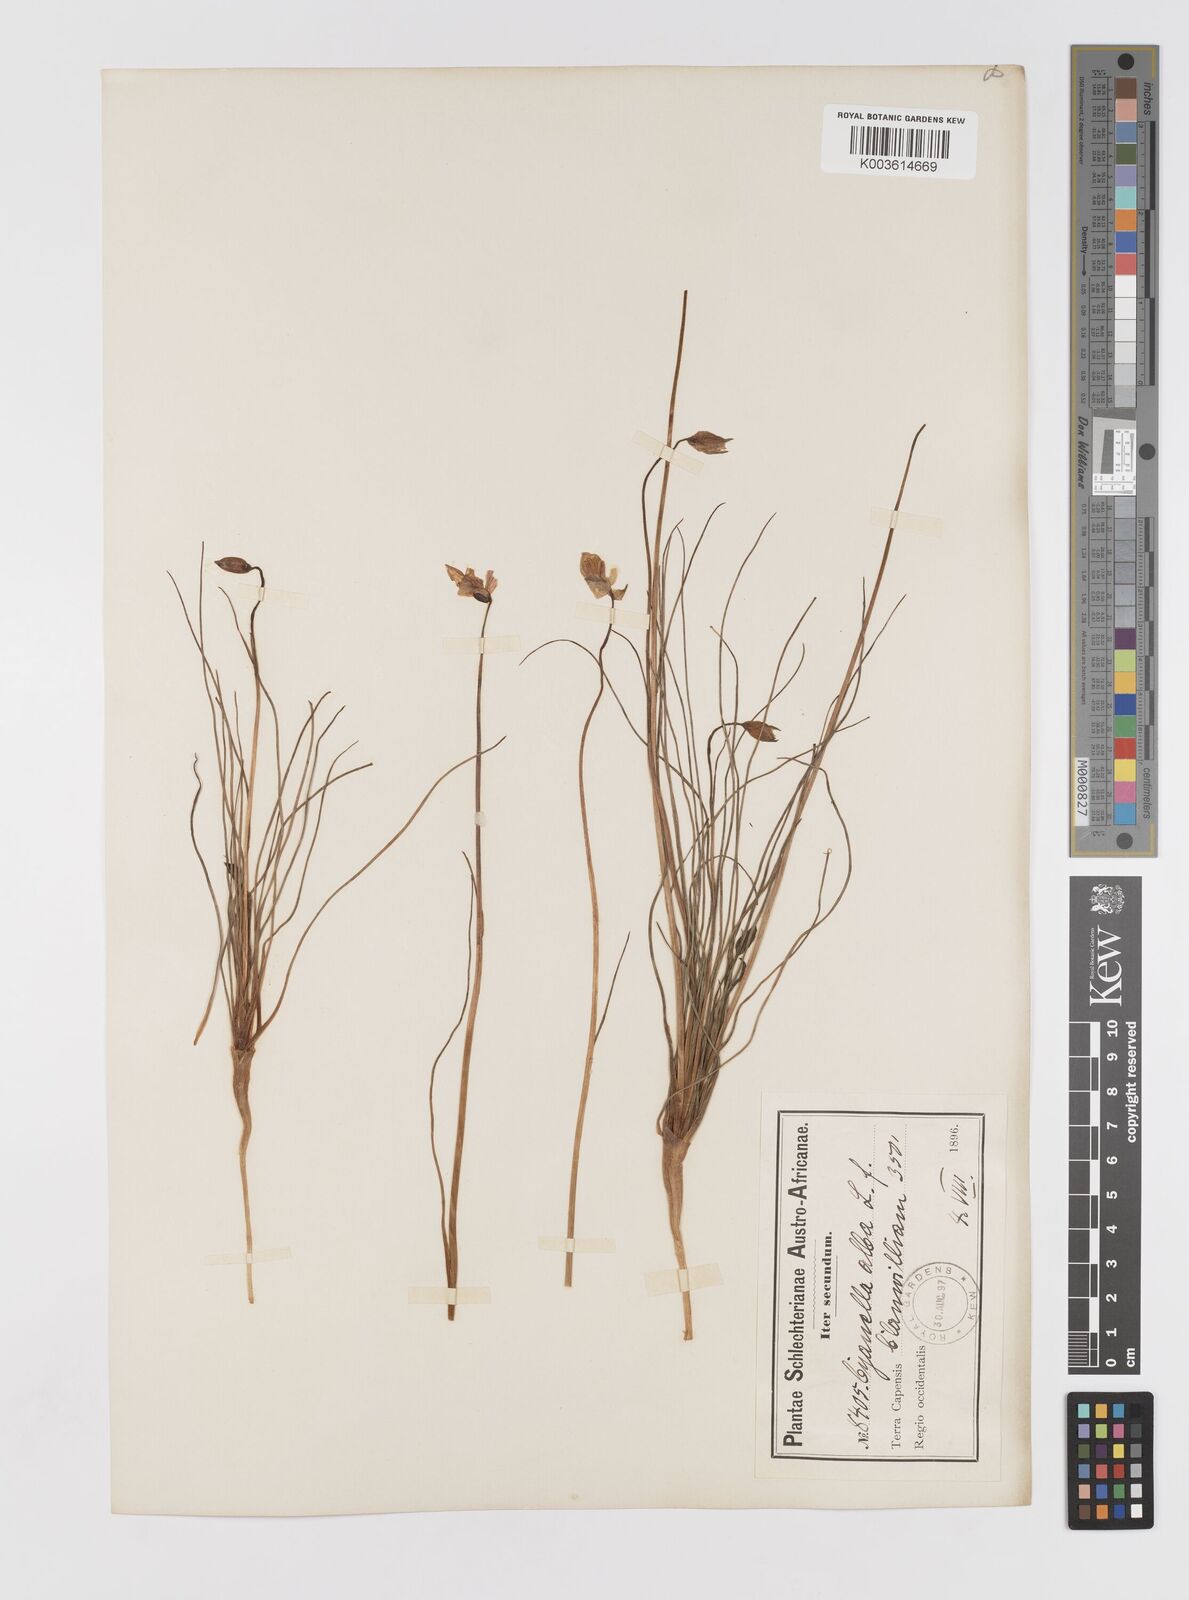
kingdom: Plantae
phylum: Tracheophyta
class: Liliopsida
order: Asparagales
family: Tecophilaeaceae
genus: Cyanella
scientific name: Cyanella alba
